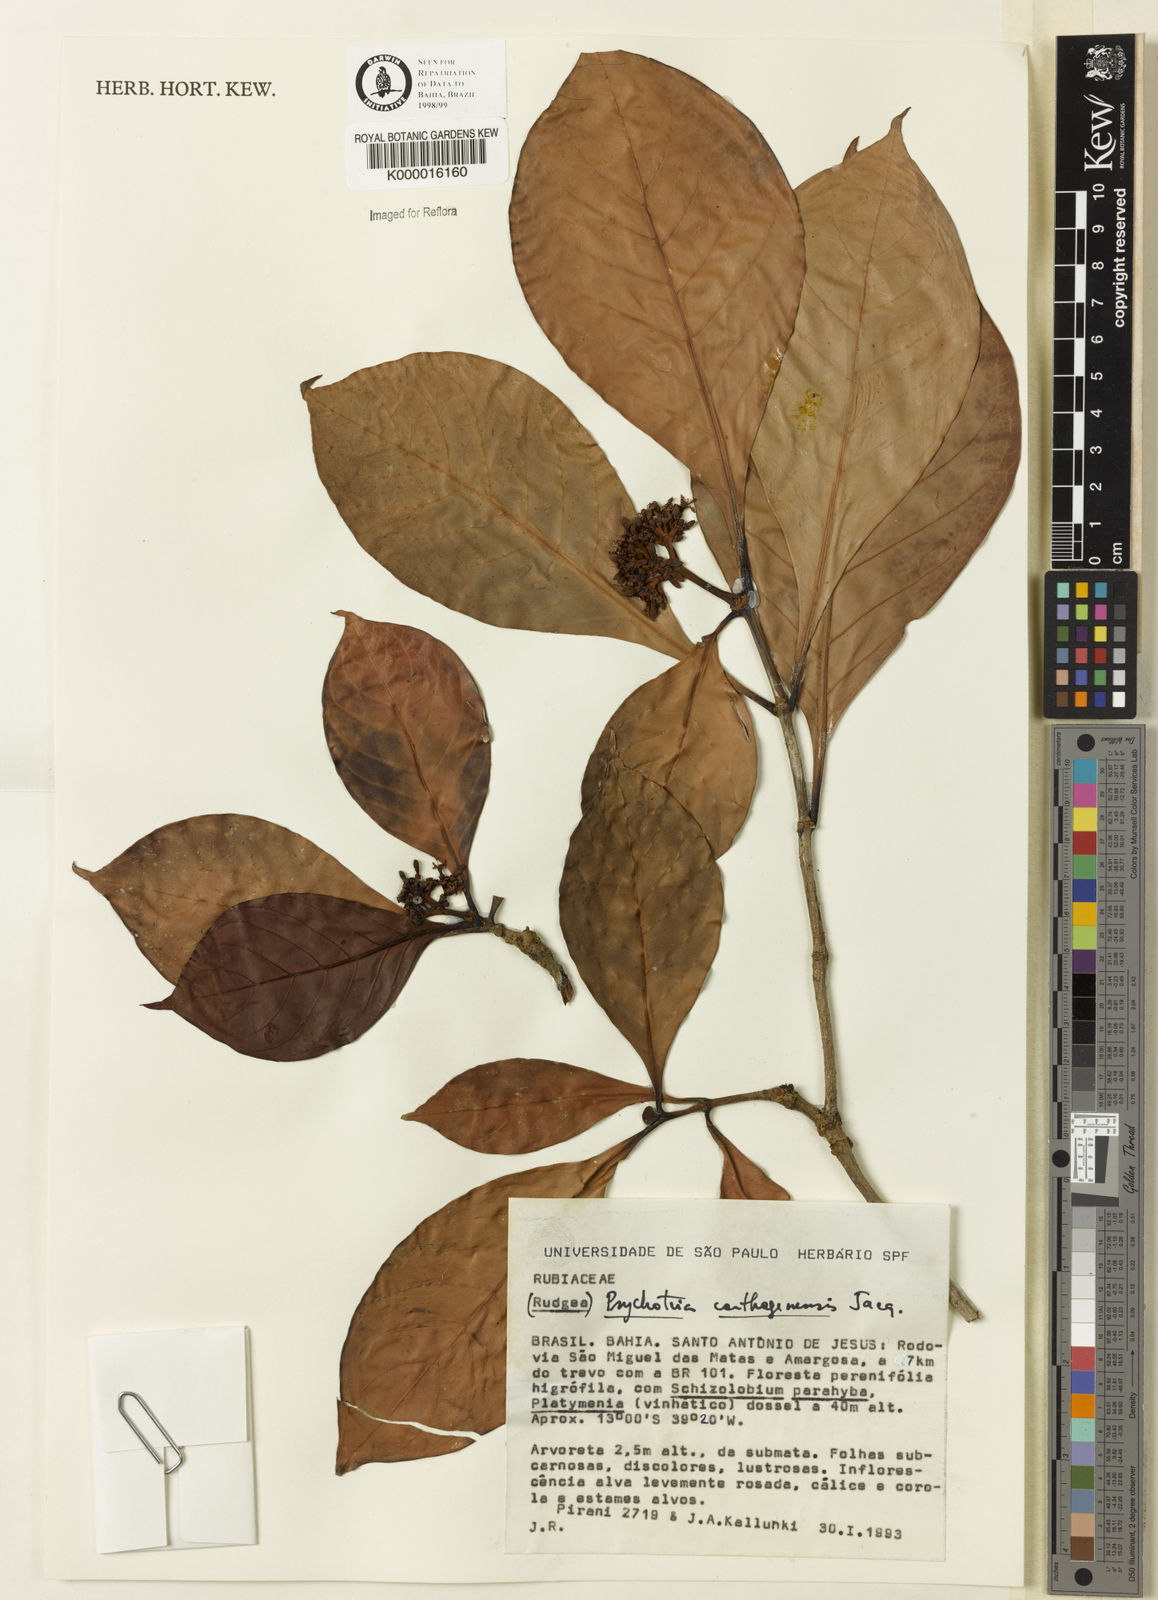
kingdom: Plantae
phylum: Tracheophyta
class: Magnoliopsida
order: Gentianales
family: Rubiaceae
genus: Psychotria
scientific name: Psychotria carthagenensis
